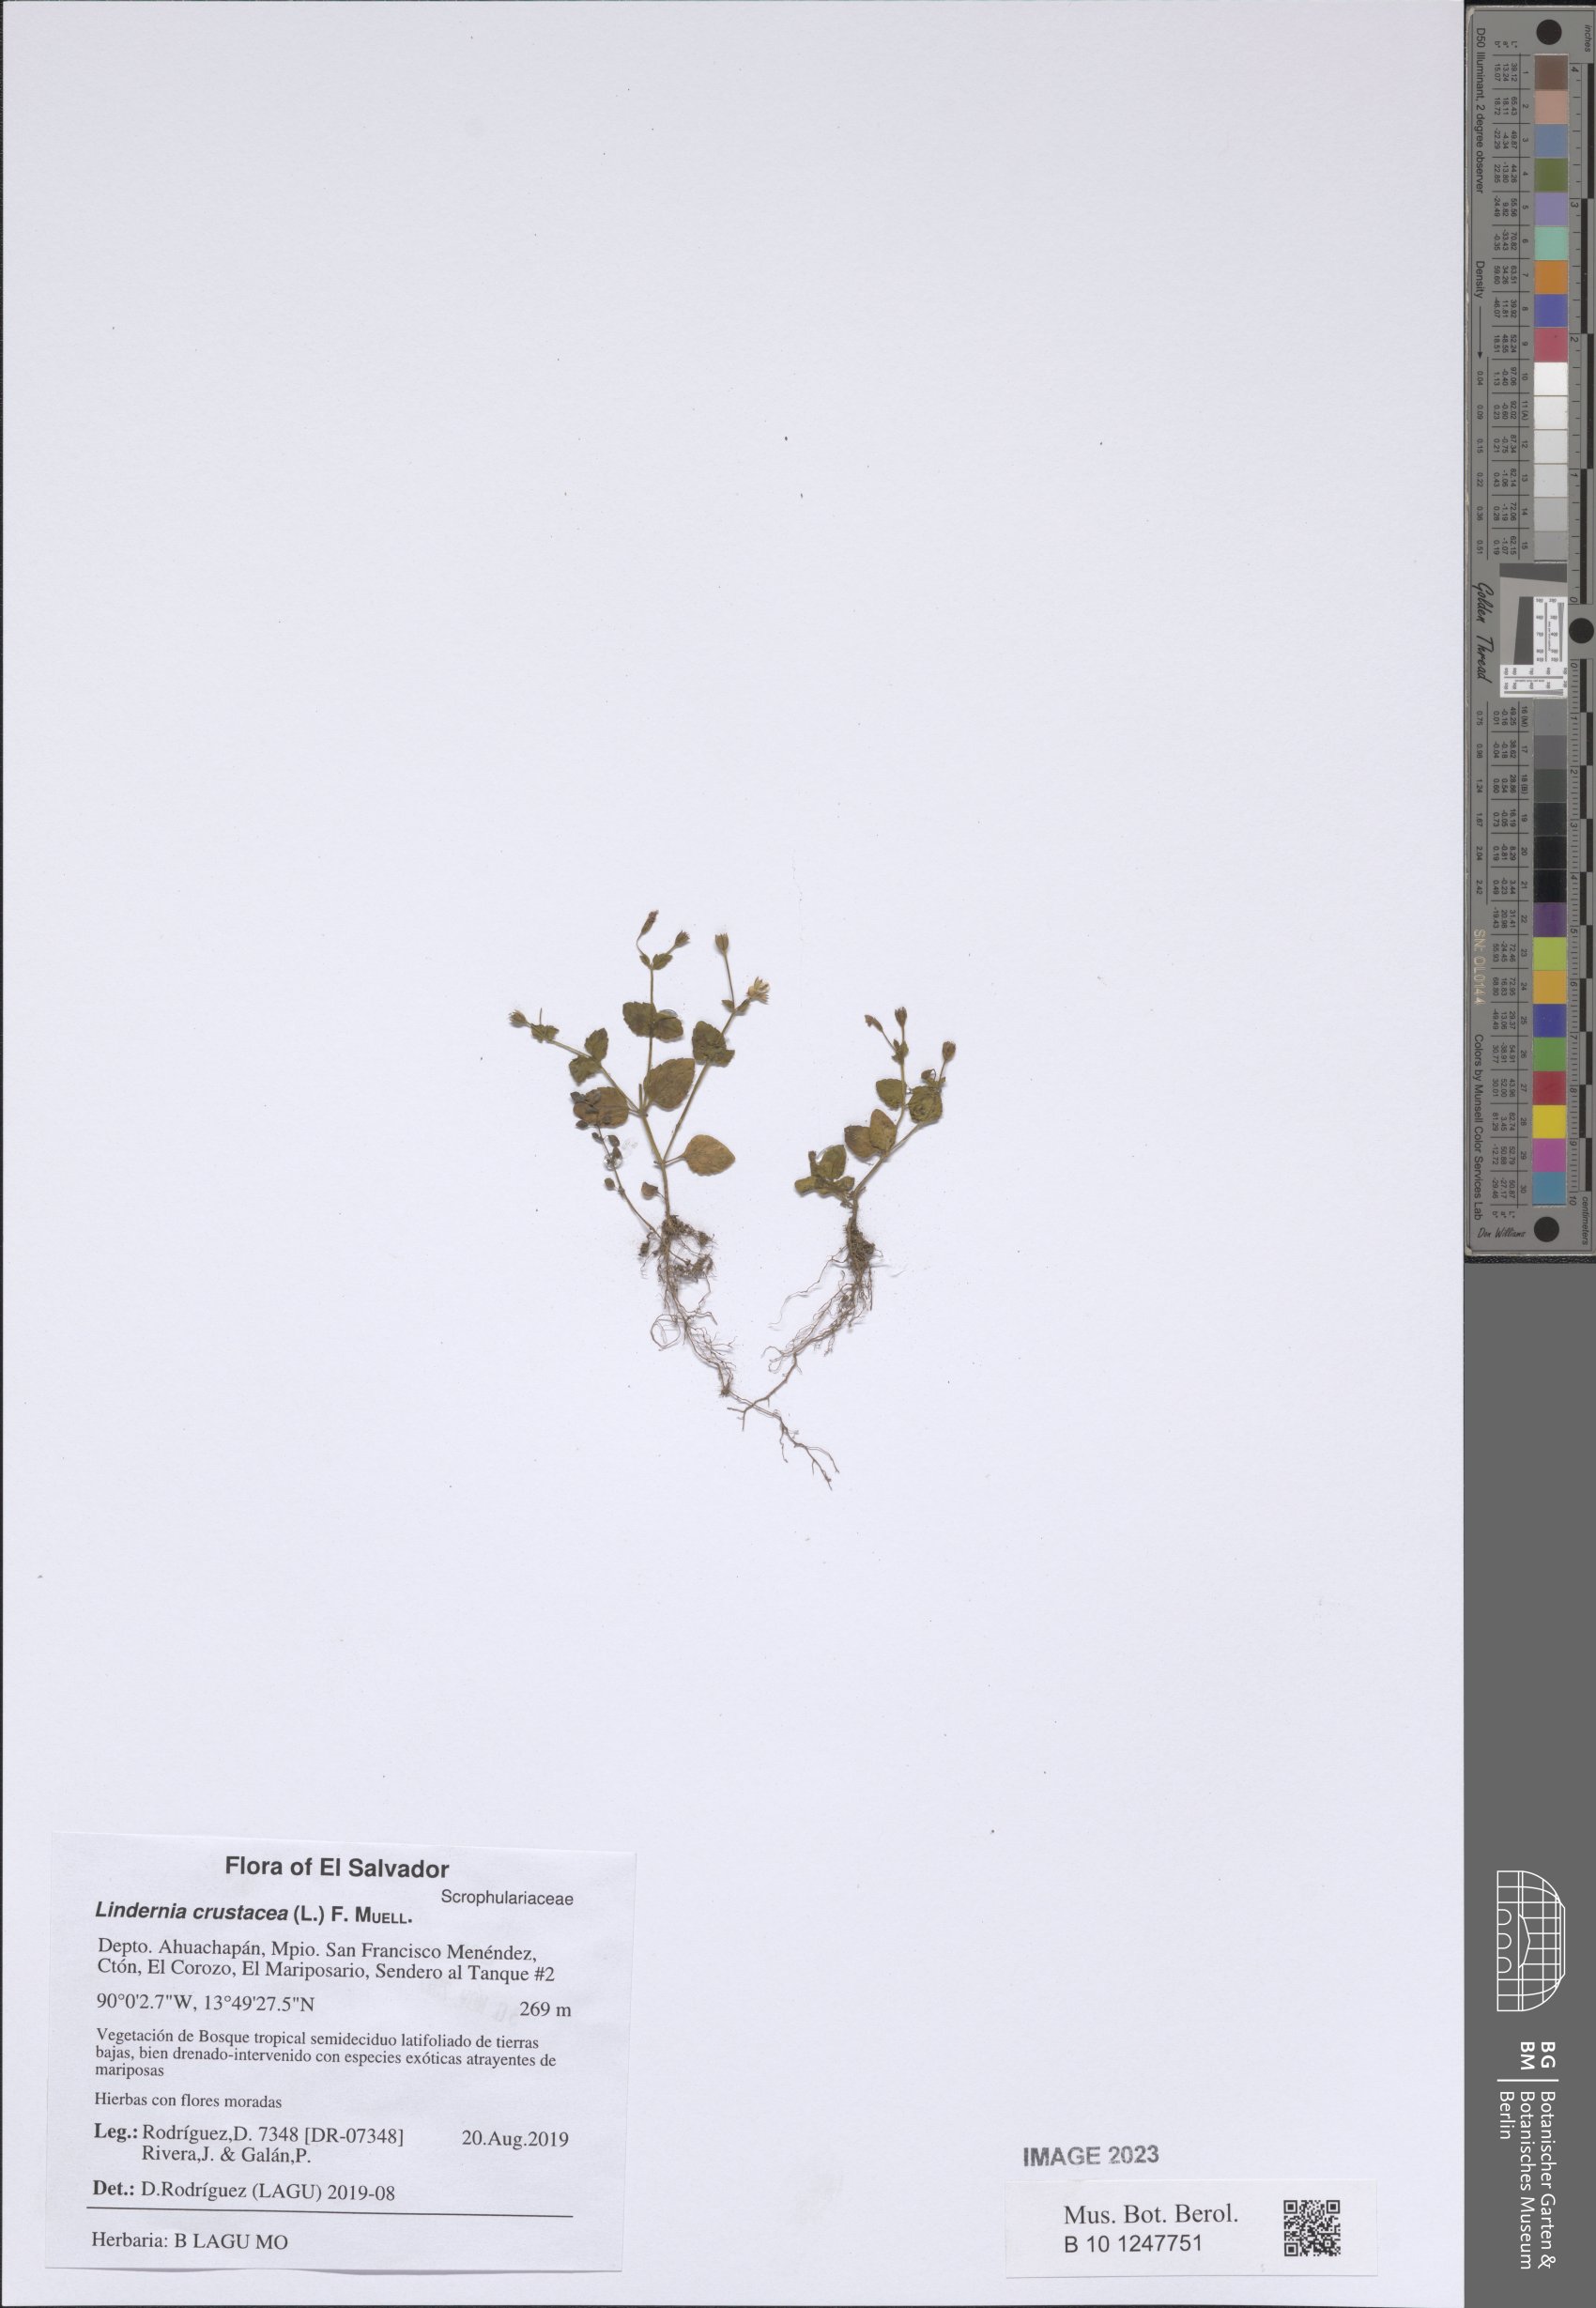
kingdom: Plantae
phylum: Tracheophyta
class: Magnoliopsida
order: Lamiales
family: Linderniaceae
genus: Torenia
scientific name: Torenia crustacea
